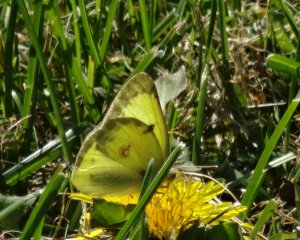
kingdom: Animalia
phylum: Arthropoda
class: Insecta
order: Lepidoptera
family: Pieridae
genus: Colias
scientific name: Colias philodice
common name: Clouded Sulphur
